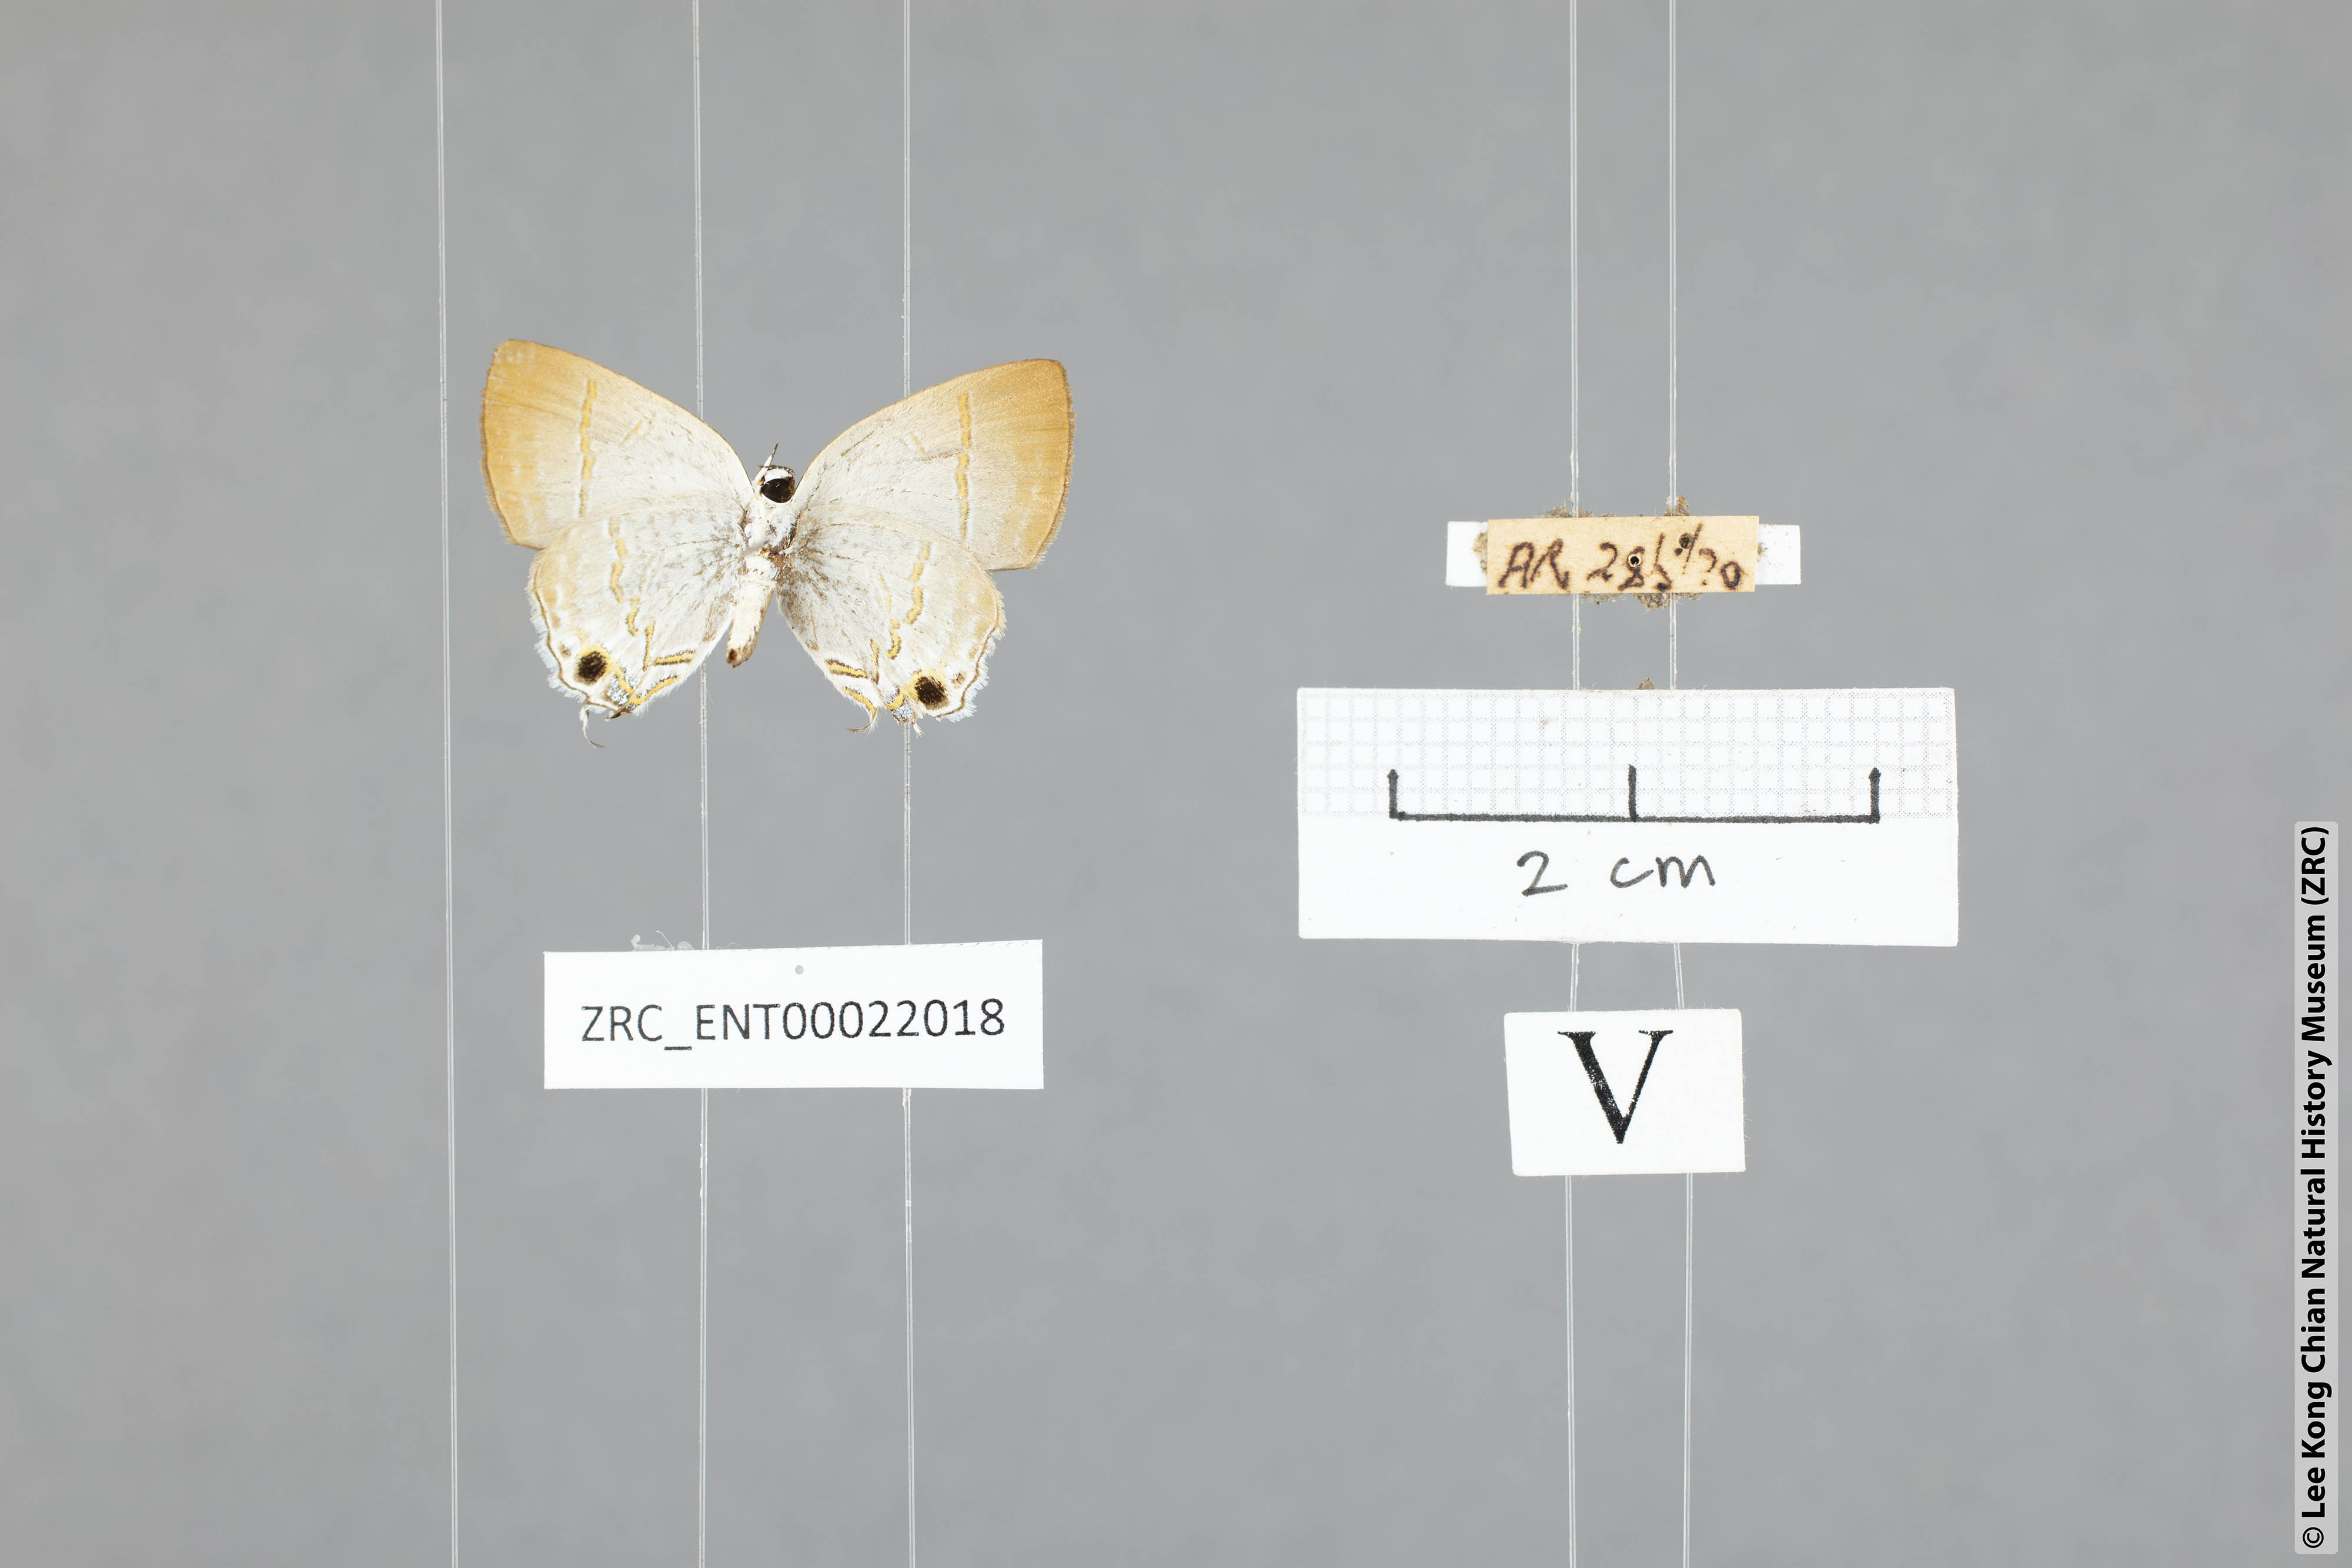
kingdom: Animalia
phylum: Arthropoda
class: Insecta
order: Lepidoptera
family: Lycaenidae
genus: Sinthusa
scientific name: Sinthusa nasaka
